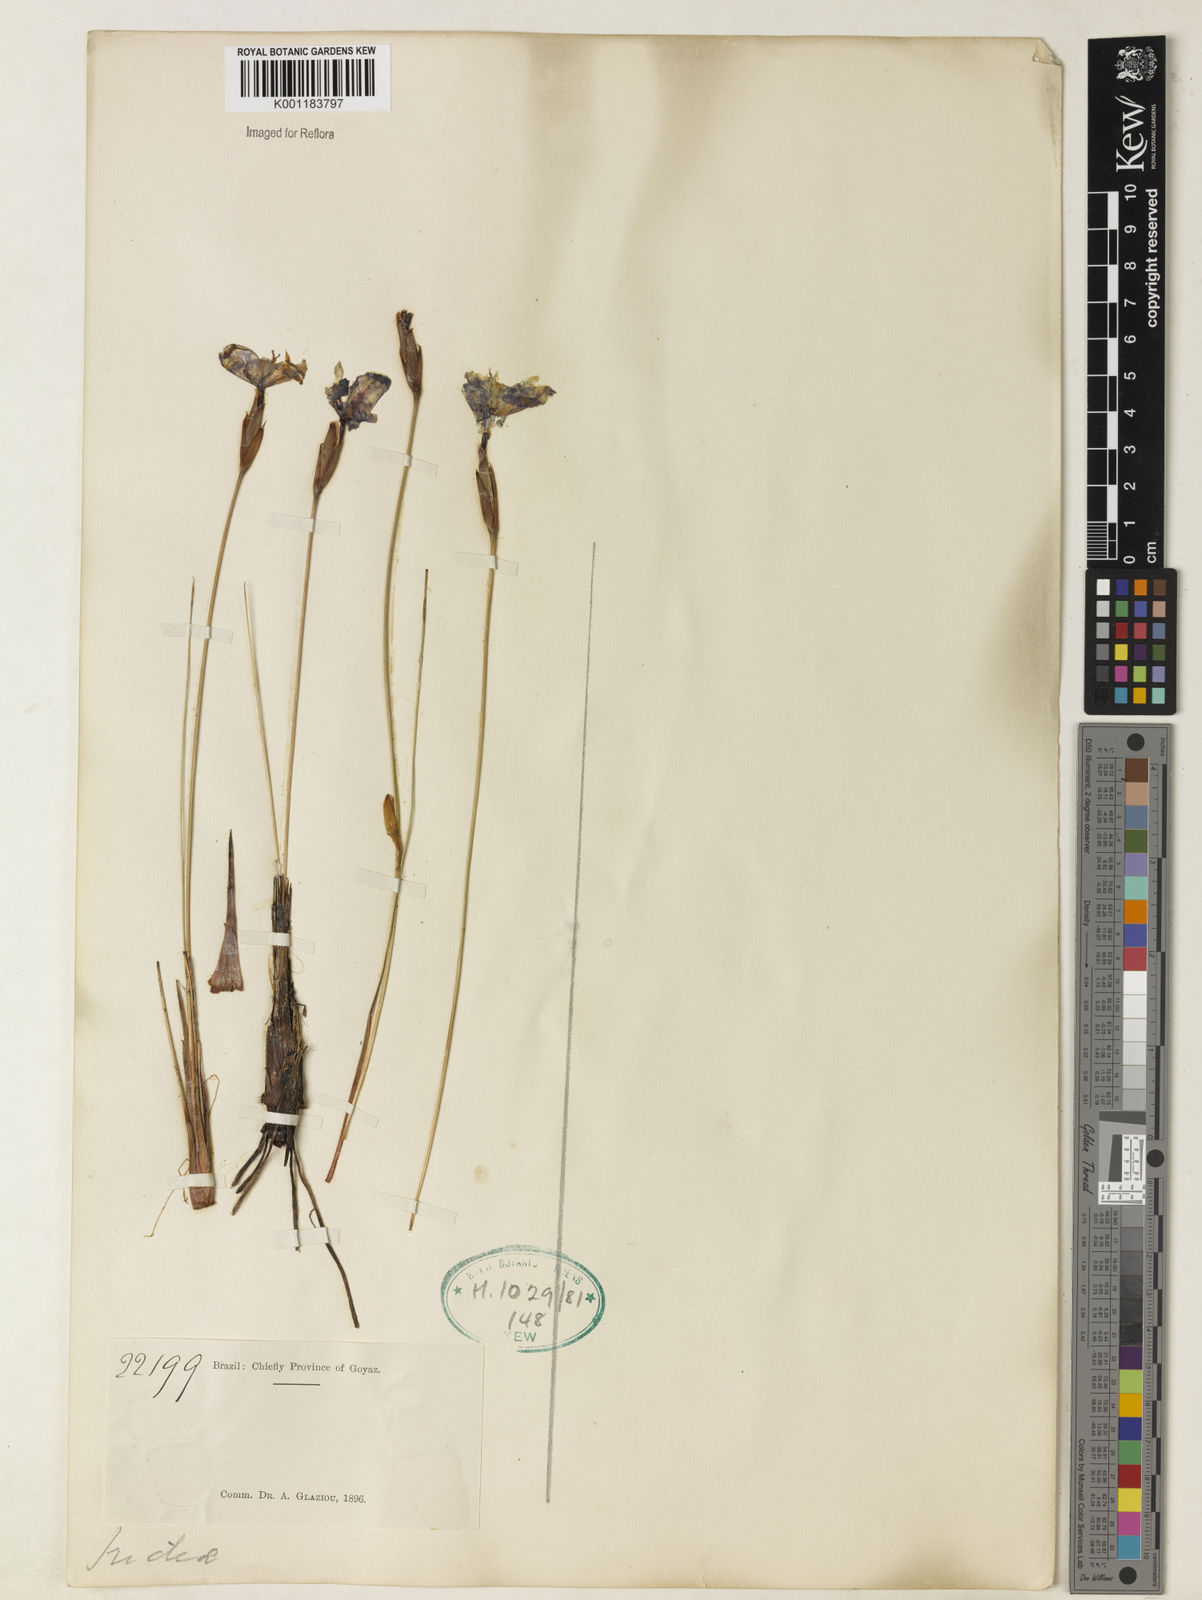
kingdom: Plantae
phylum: Tracheophyta
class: Liliopsida
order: Asparagales
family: Iridaceae
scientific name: Iridaceae
